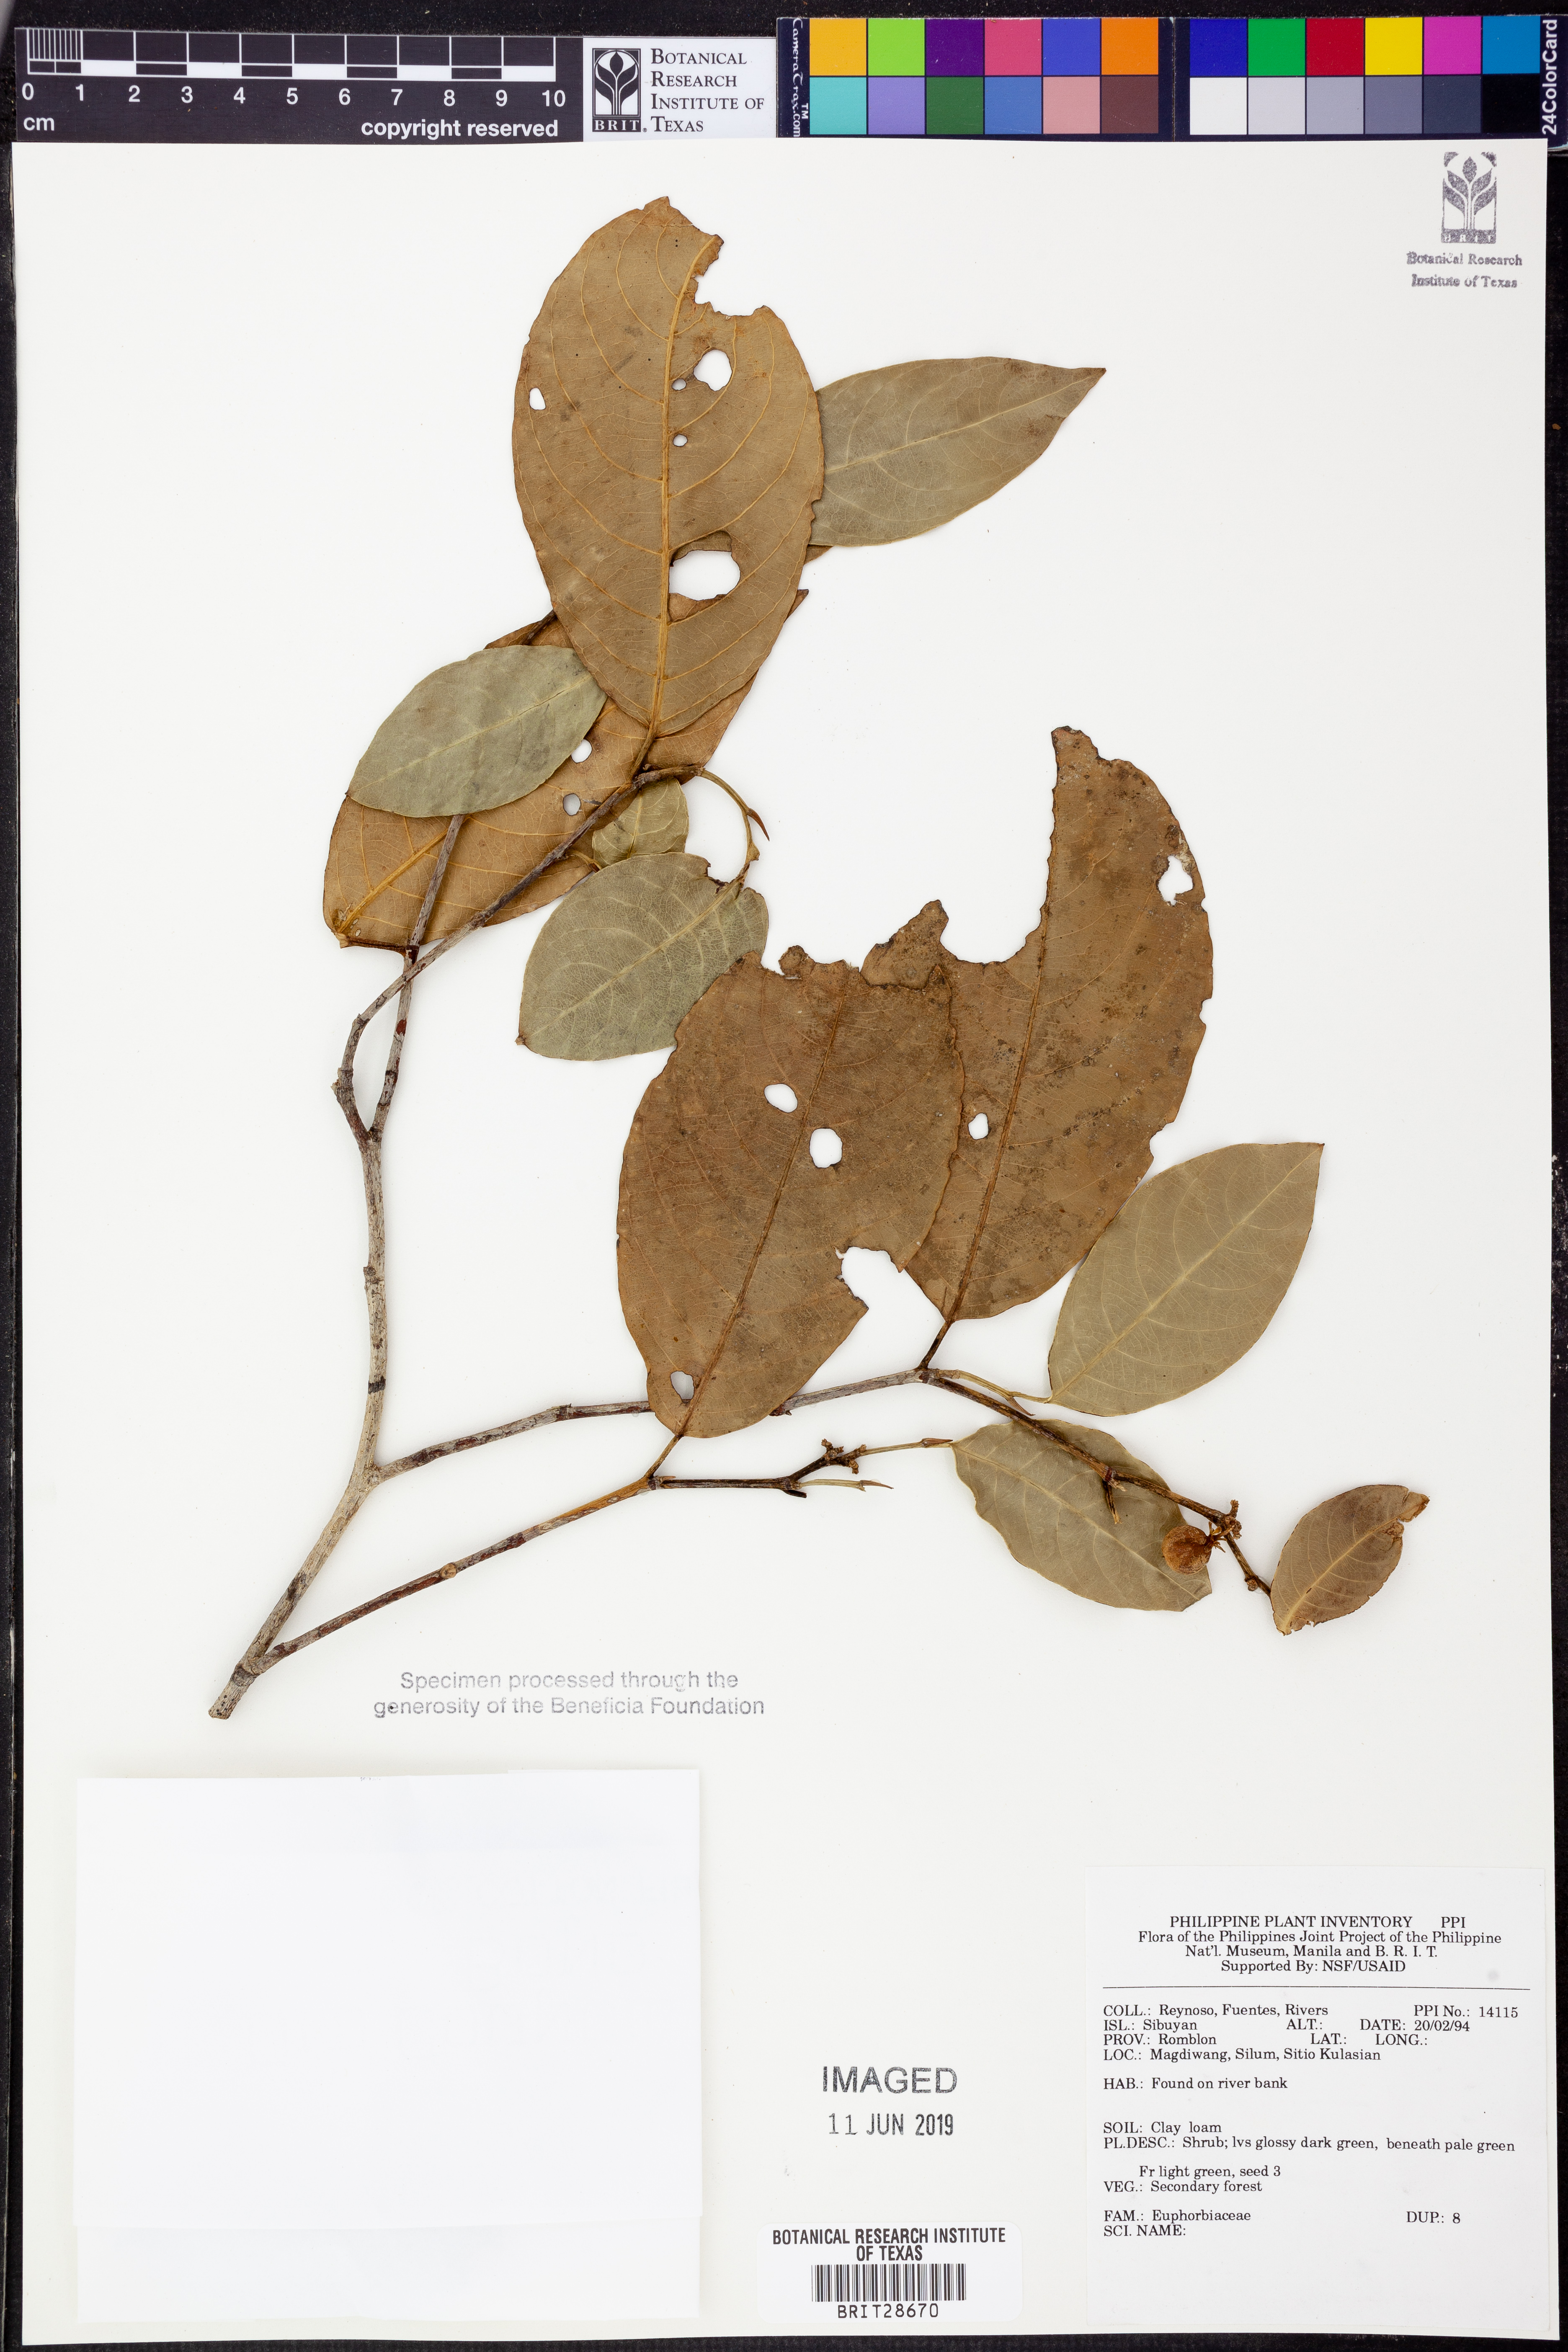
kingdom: Plantae
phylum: Tracheophyta
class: Magnoliopsida
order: Malpighiales
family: Euphorbiaceae
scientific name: Euphorbiaceae
